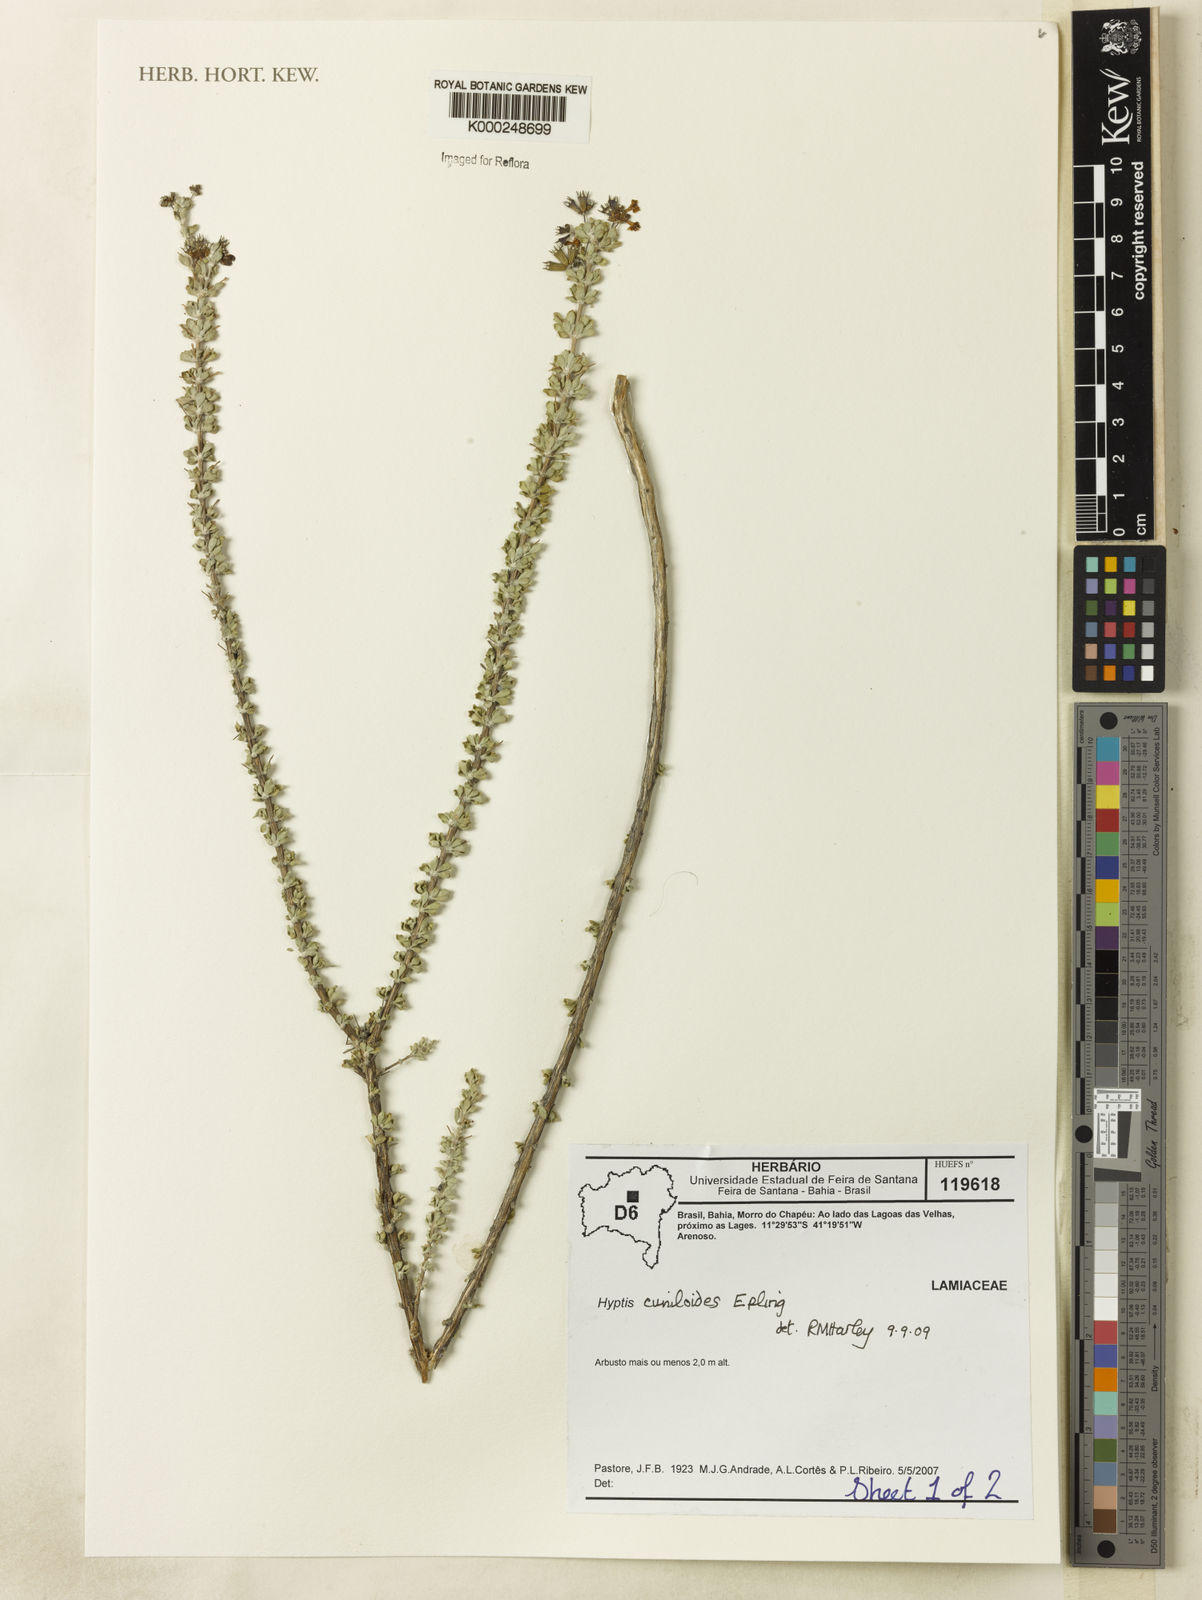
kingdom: Plantae
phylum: Tracheophyta
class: Magnoliopsida
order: Lamiales
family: Lamiaceae
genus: Eplingiella
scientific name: Eplingiella cuniloides
